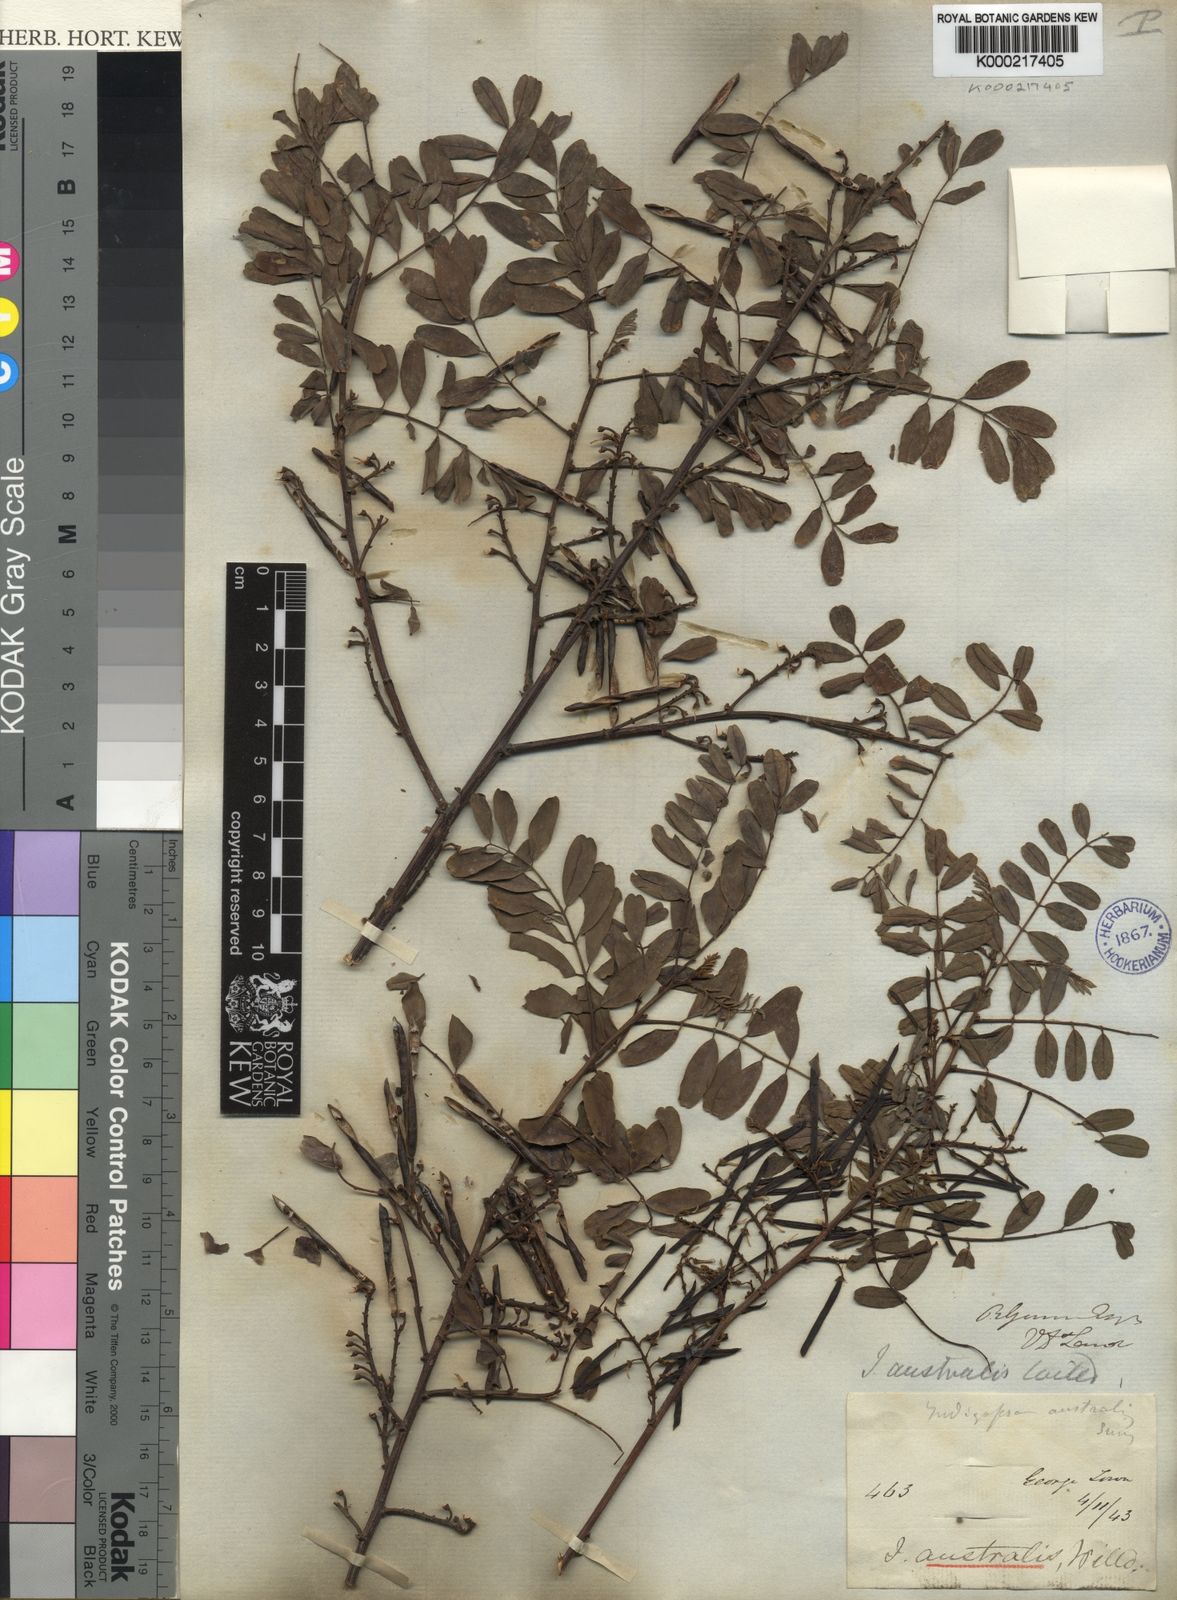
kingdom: Plantae
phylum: Tracheophyta
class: Magnoliopsida
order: Fabales
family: Fabaceae
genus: Indigofera
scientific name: Indigofera australis
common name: Australian indigo
